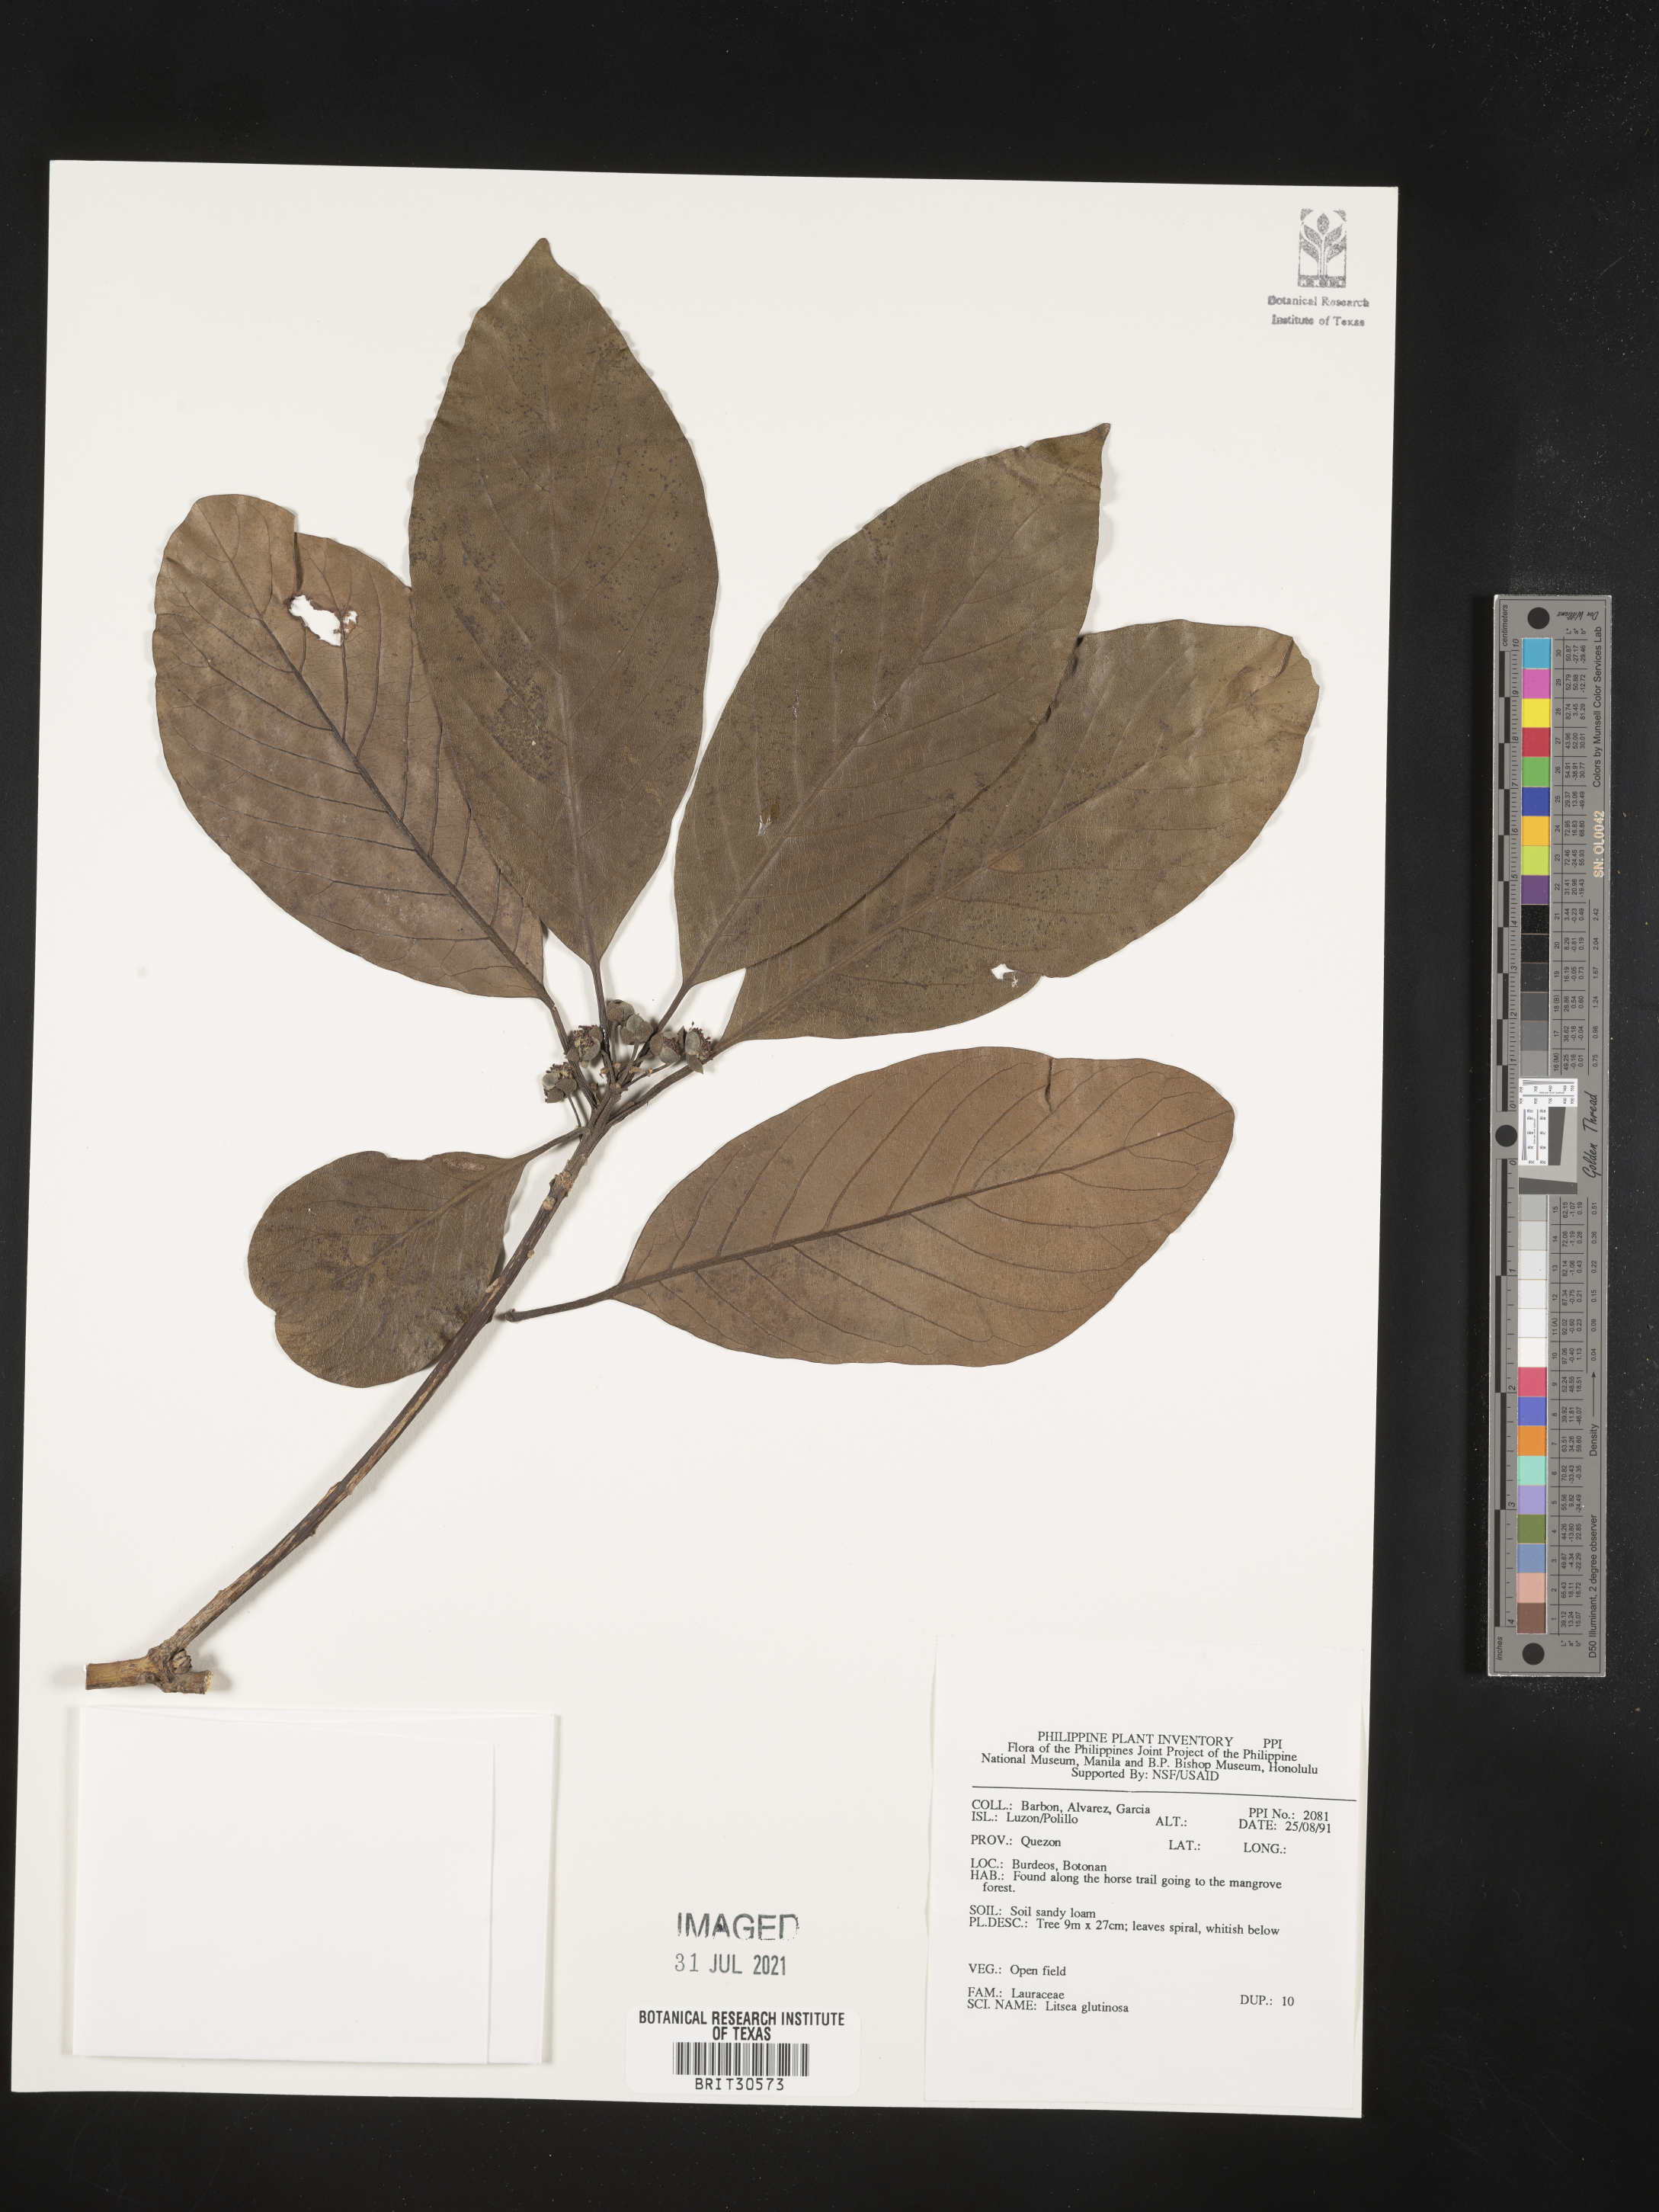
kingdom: Plantae
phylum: Tracheophyta
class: Magnoliopsida
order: Laurales
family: Lauraceae
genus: Litsea
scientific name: Litsea glutinosa
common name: Indian-laurel
